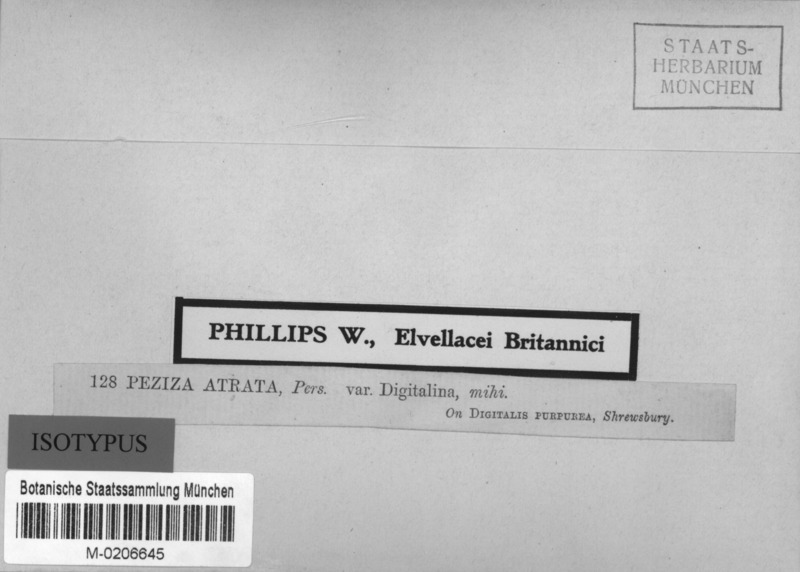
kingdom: Fungi
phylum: Ascomycota
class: Leotiomycetes
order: Helotiales
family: Ploettnerulaceae
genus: Pyrenopeziza
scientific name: Pyrenopeziza digitalina
